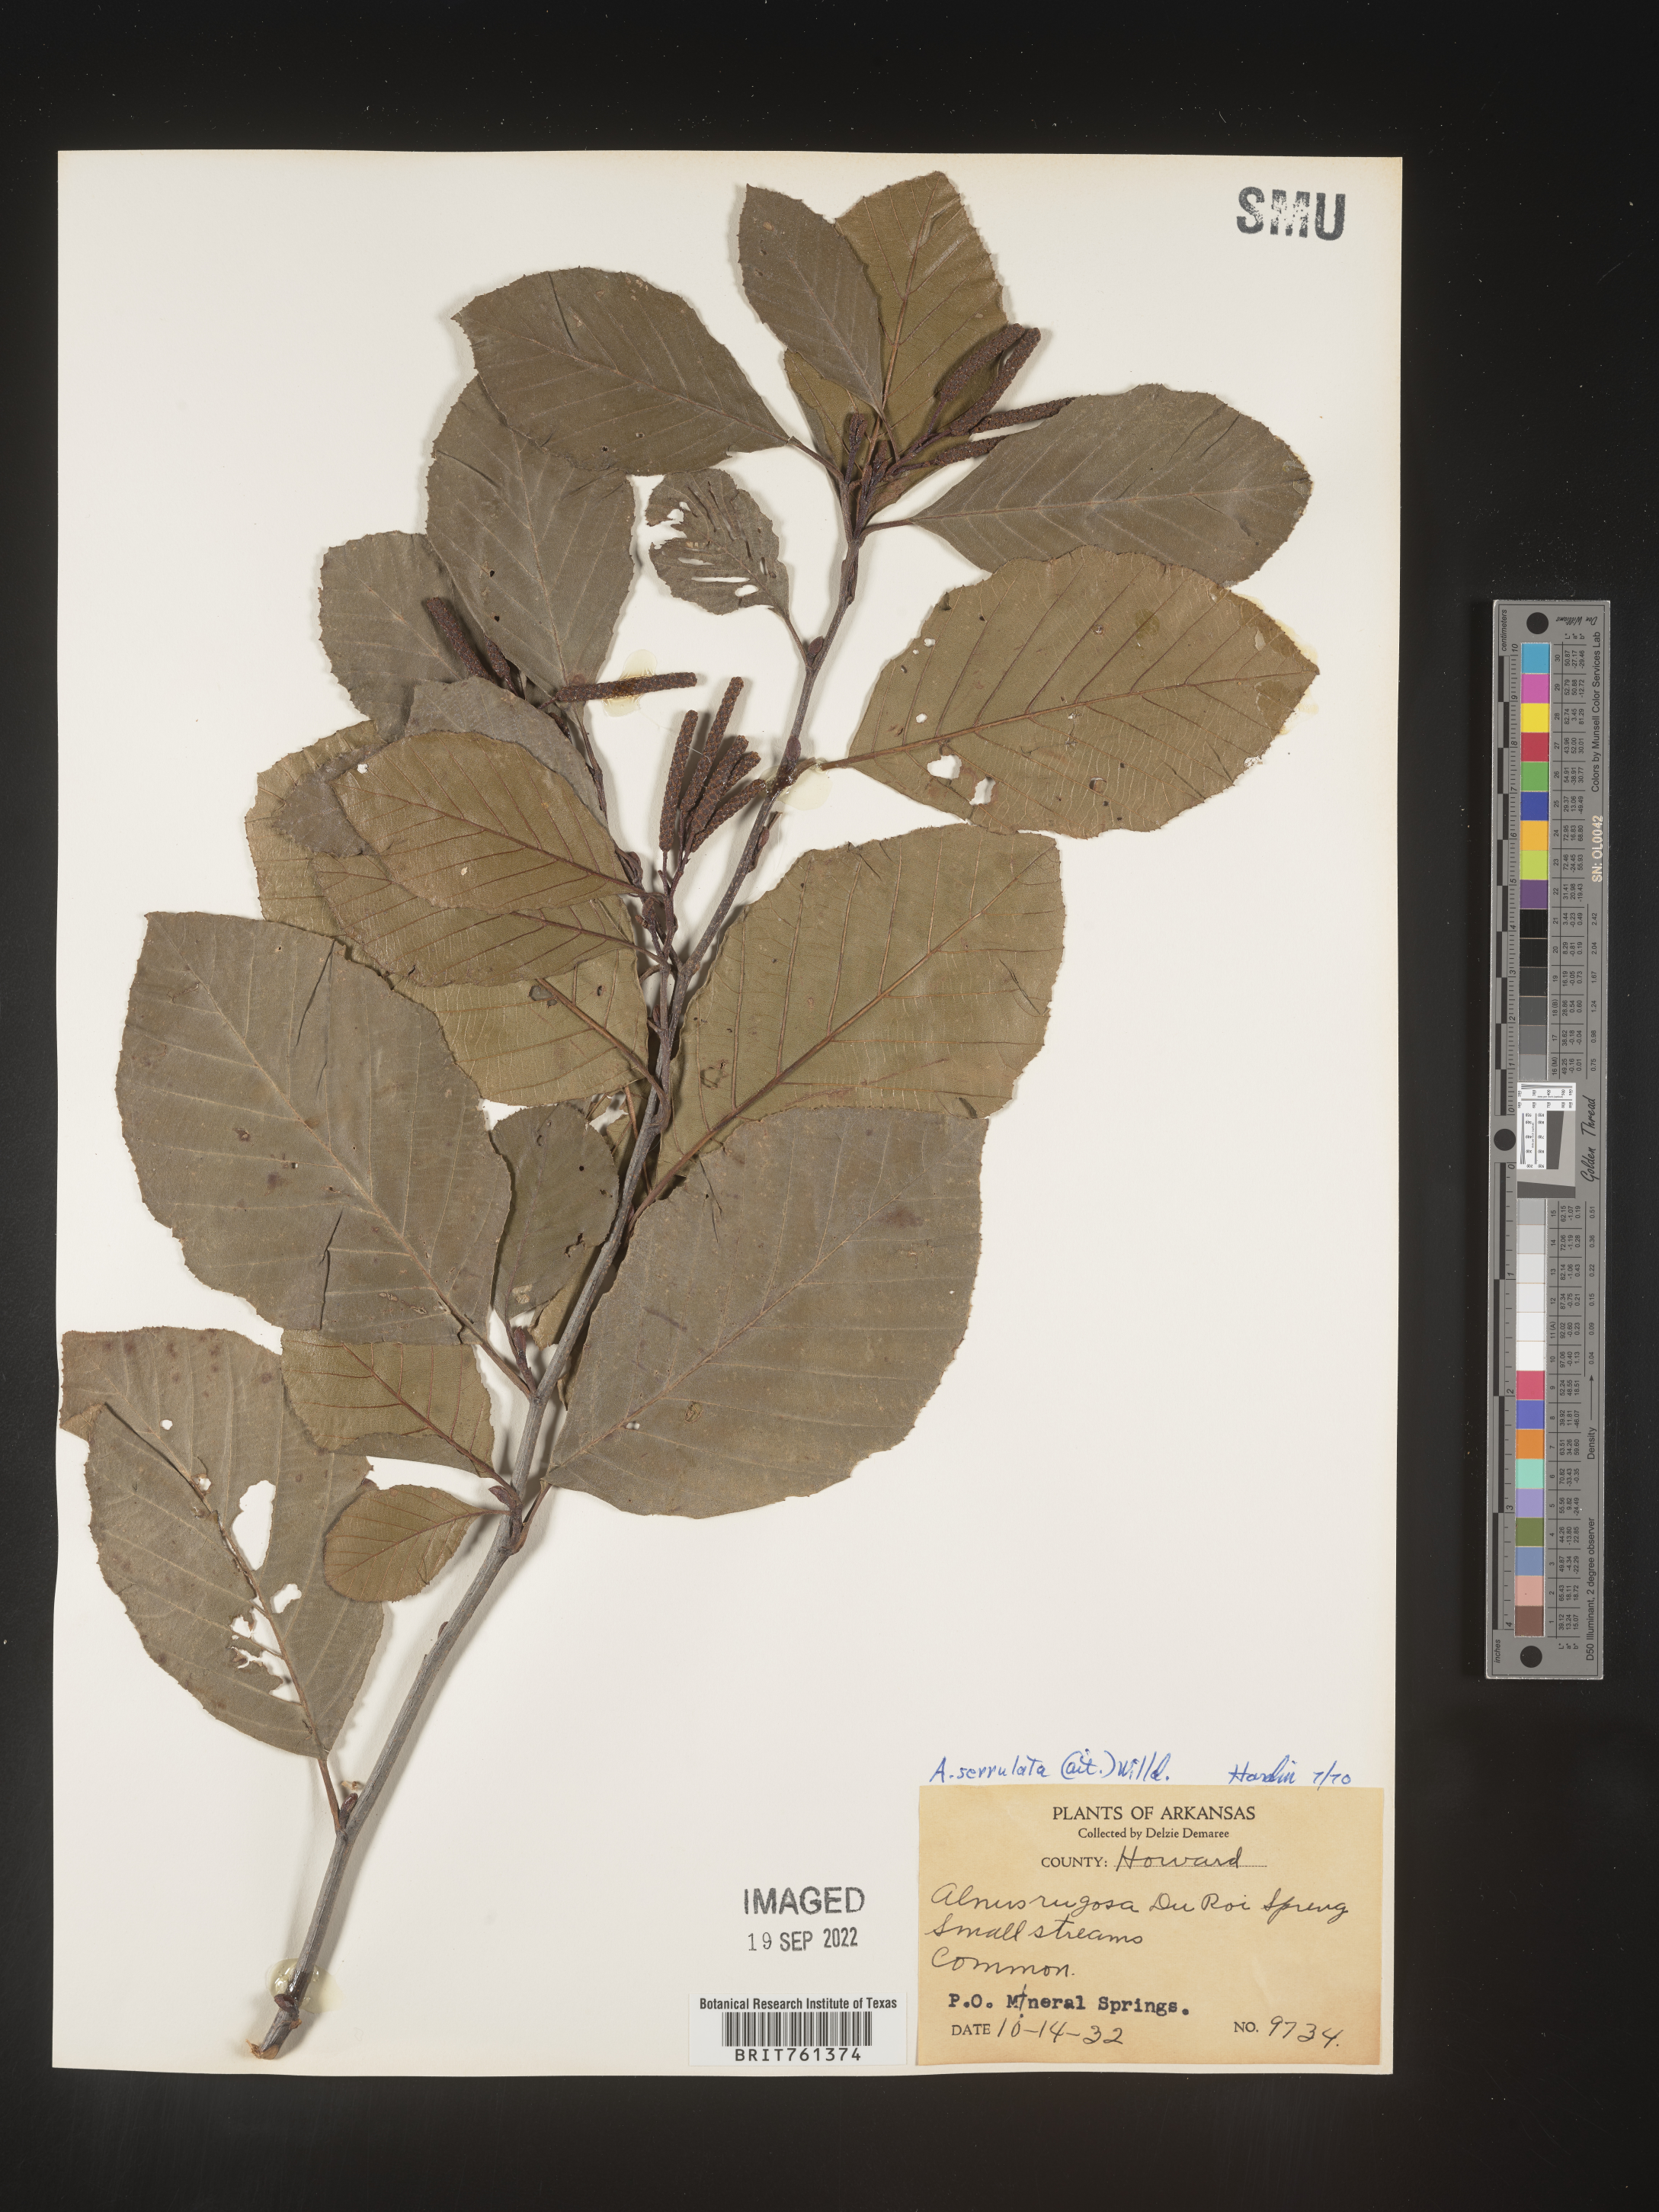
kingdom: Plantae
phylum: Tracheophyta
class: Magnoliopsida
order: Fagales
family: Betulaceae
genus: Alnus
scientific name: Alnus serrulata
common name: Hazel alder
